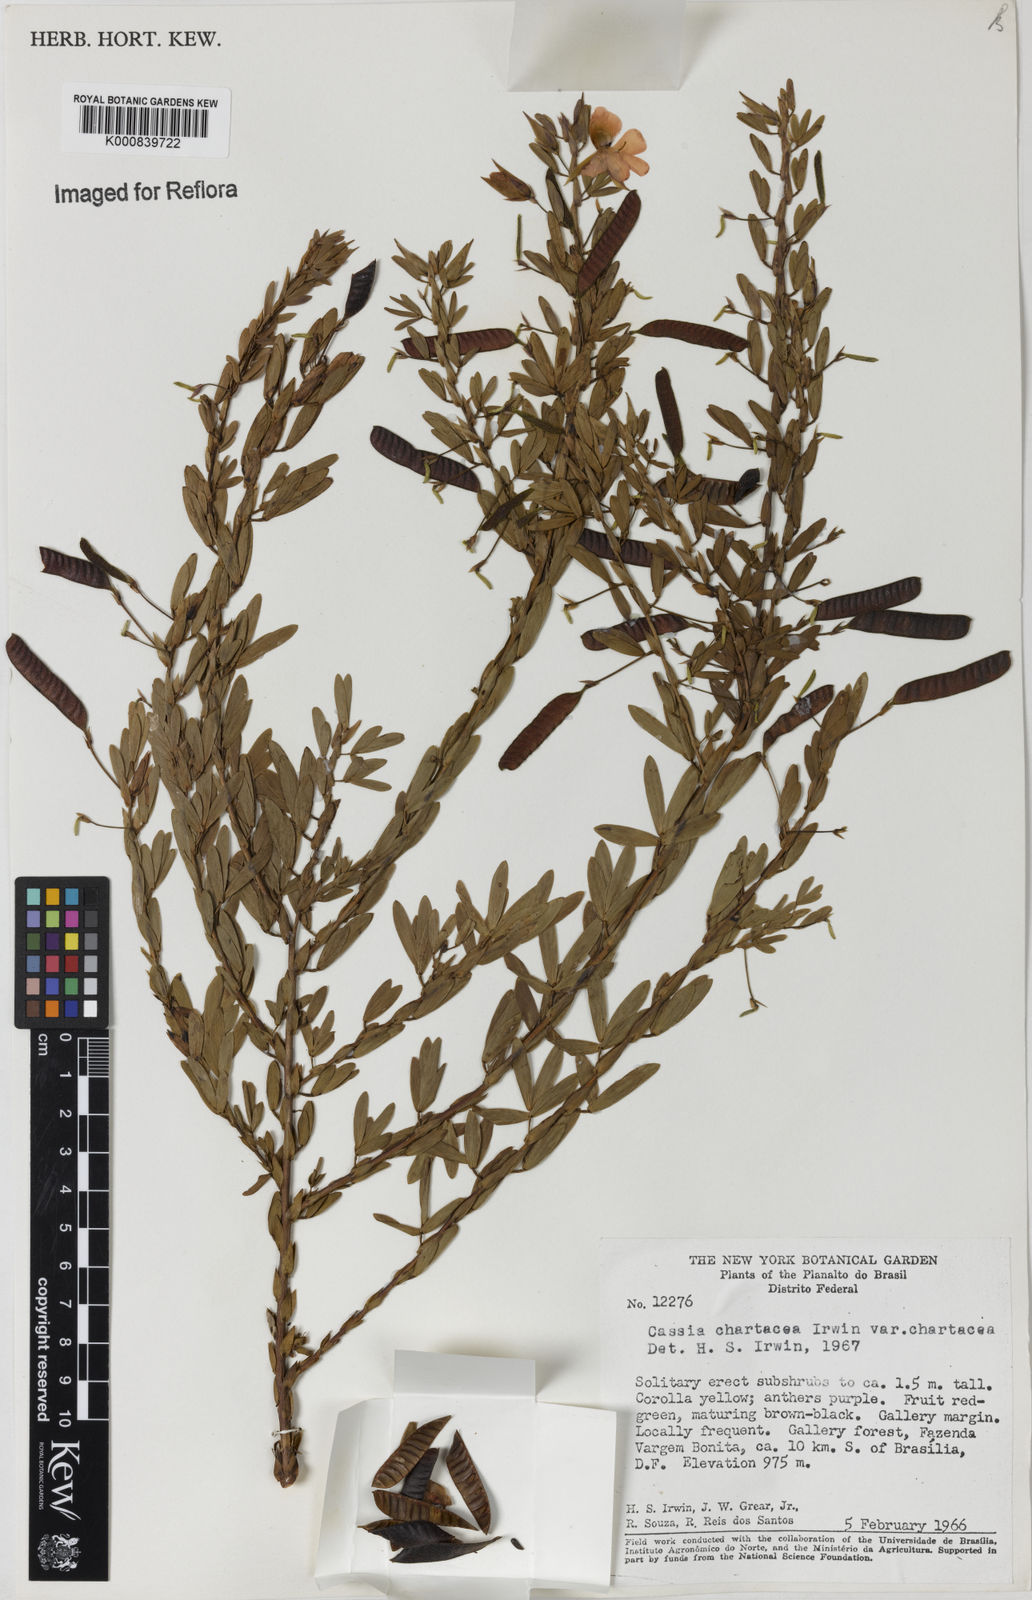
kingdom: Plantae
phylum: Tracheophyta
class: Magnoliopsida
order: Fabales
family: Fabaceae
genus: Chamaecrista
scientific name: Chamaecrista langsdorffii
